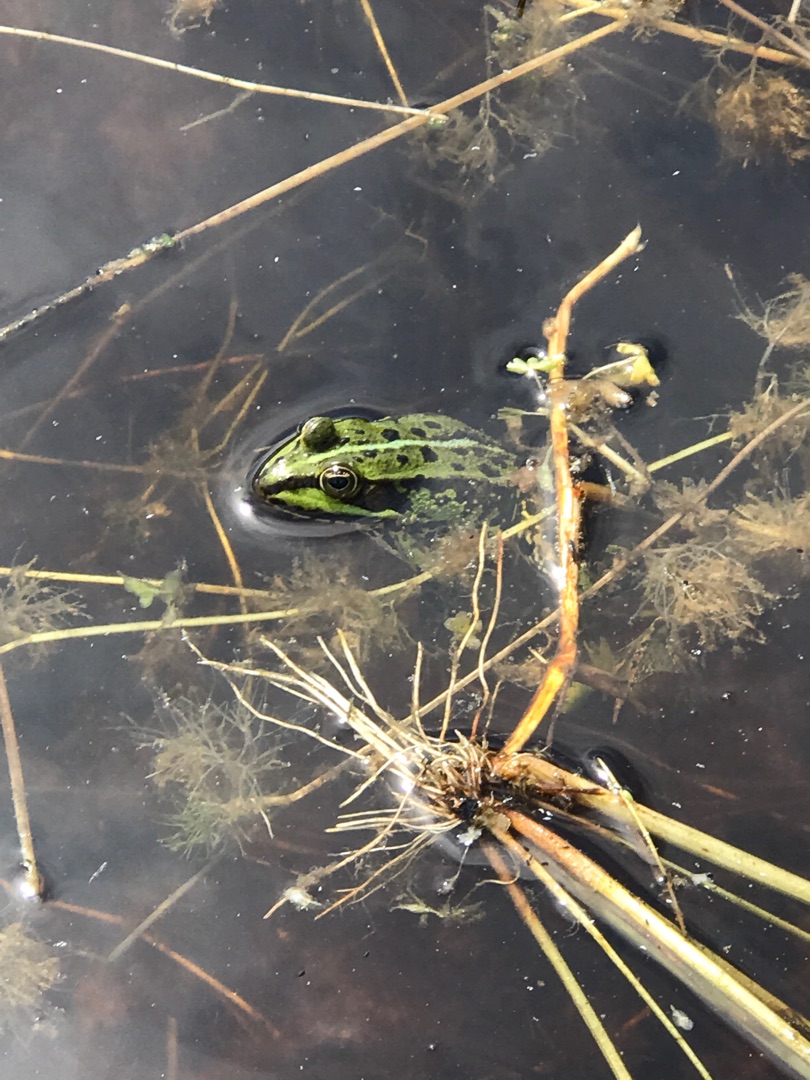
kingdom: Animalia
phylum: Chordata
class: Amphibia
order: Anura
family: Ranidae
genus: Pelophylax
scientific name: Pelophylax lessonae
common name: Grøn frø
